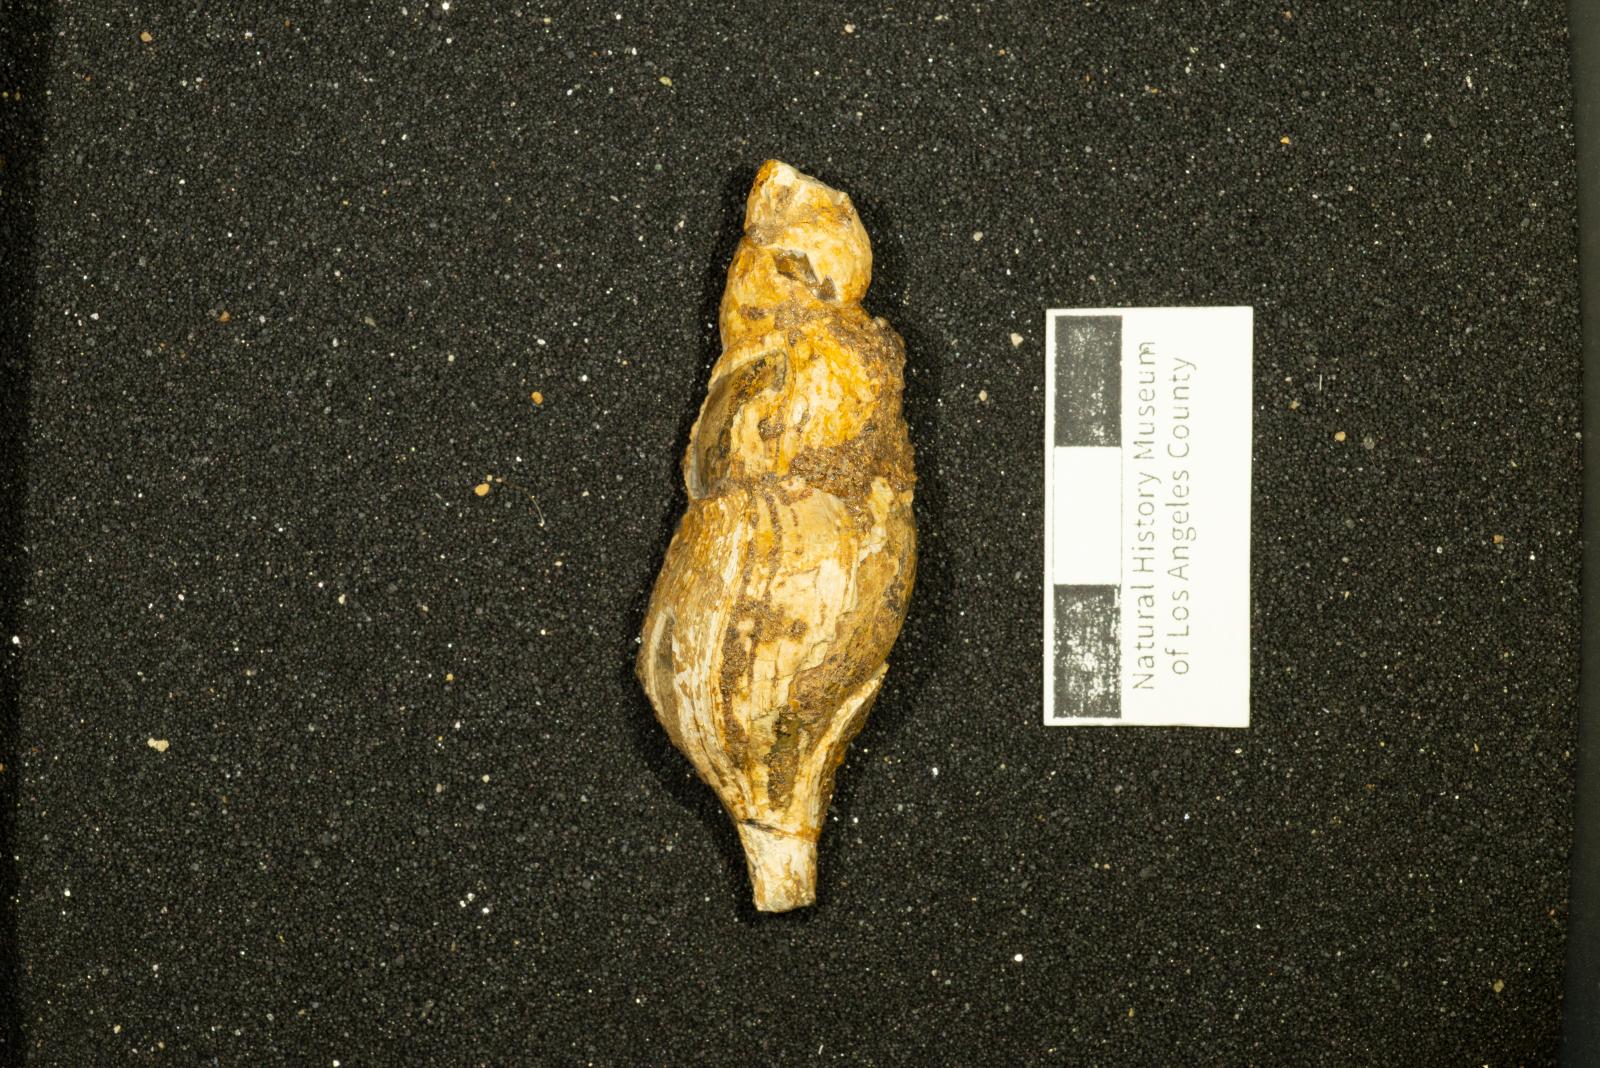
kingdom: Animalia
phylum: Mollusca
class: Gastropoda
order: Neogastropoda
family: Volutidae
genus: Fusivoluta
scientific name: Fusivoluta cretacea
